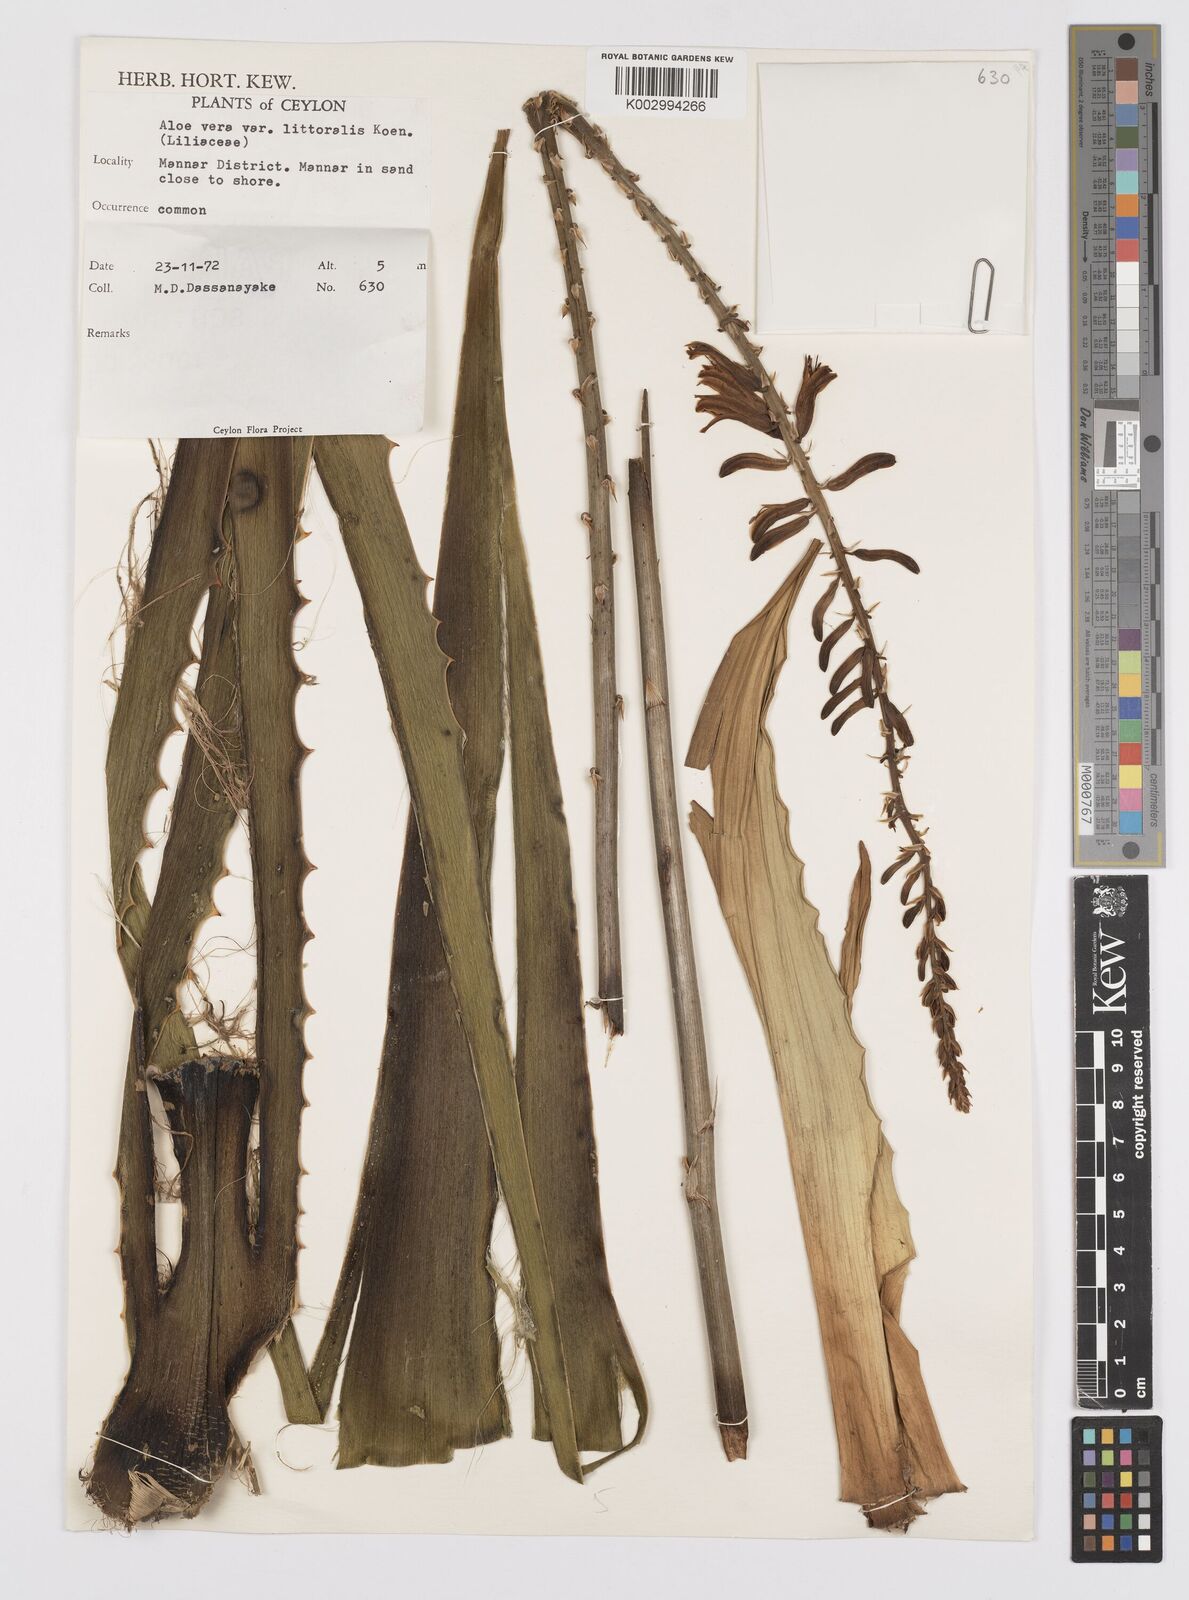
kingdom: Plantae
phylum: Tracheophyta
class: Liliopsida
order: Asparagales
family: Asphodelaceae
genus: Aloe
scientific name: Aloe vera
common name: Barbados aloe
